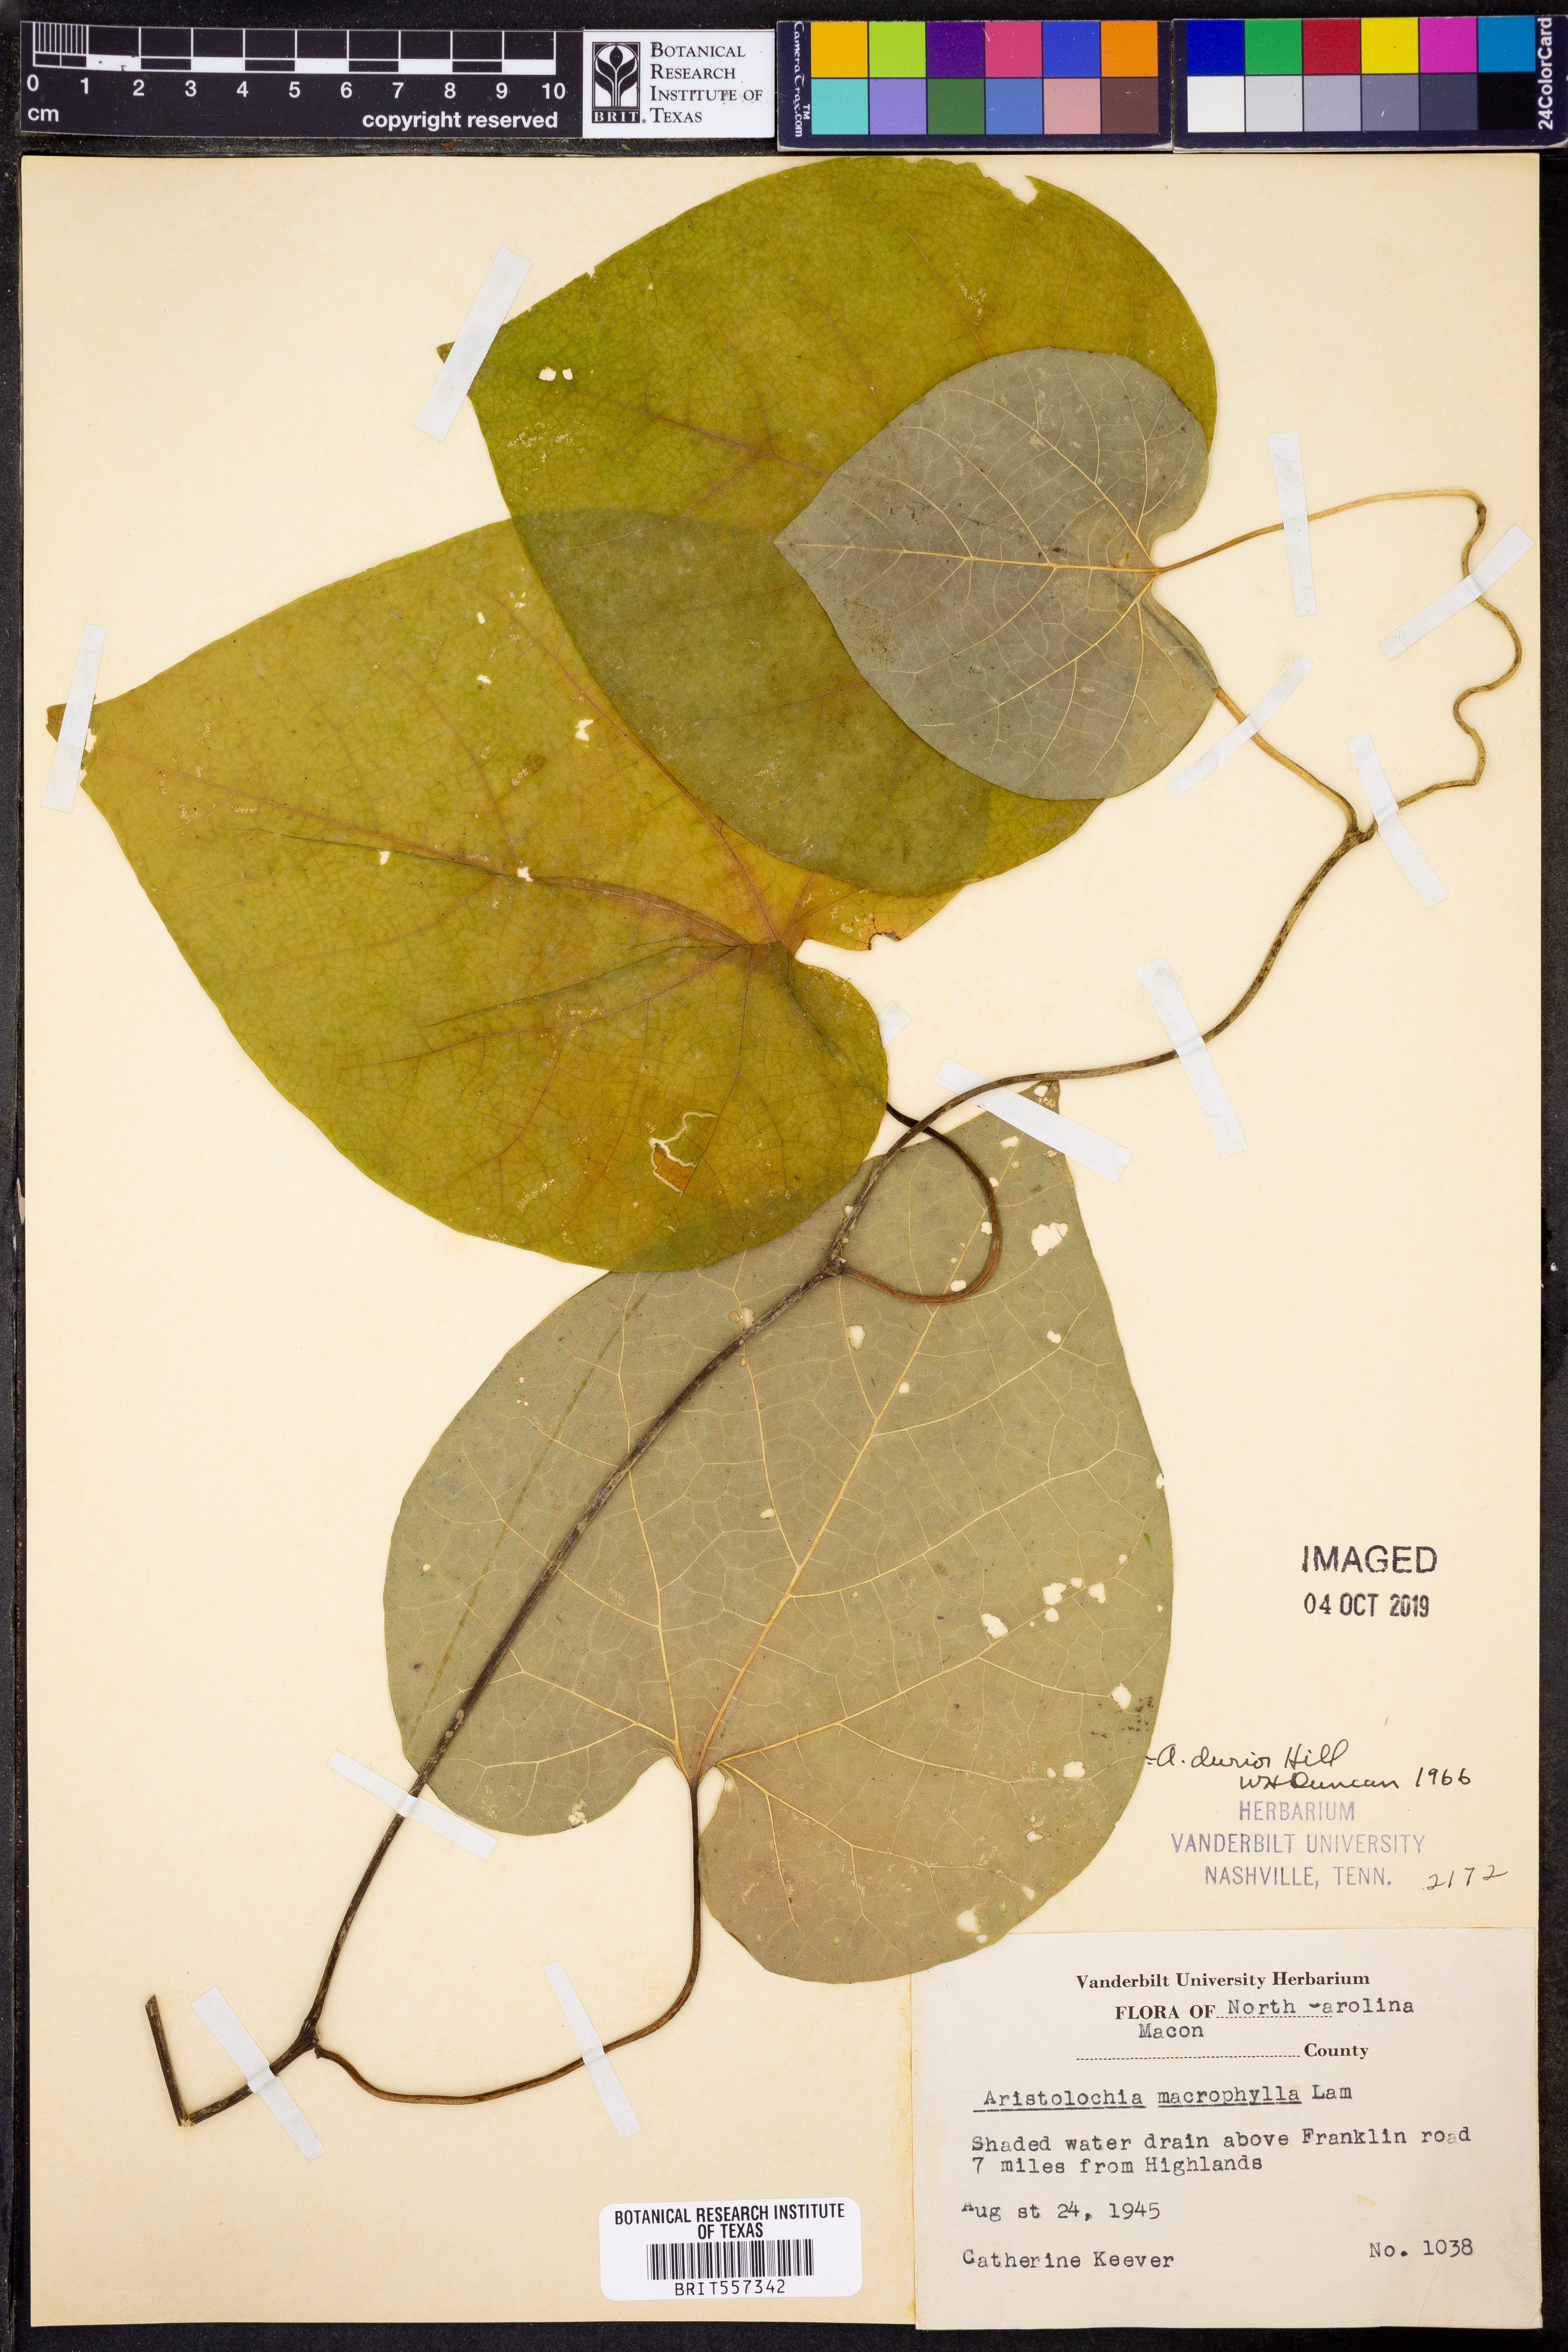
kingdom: Plantae
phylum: Tracheophyta
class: Magnoliopsida
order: Lamiales
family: Bignoniaceae
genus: Bignonia
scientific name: Bignonia capreolata
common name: Crossvine
